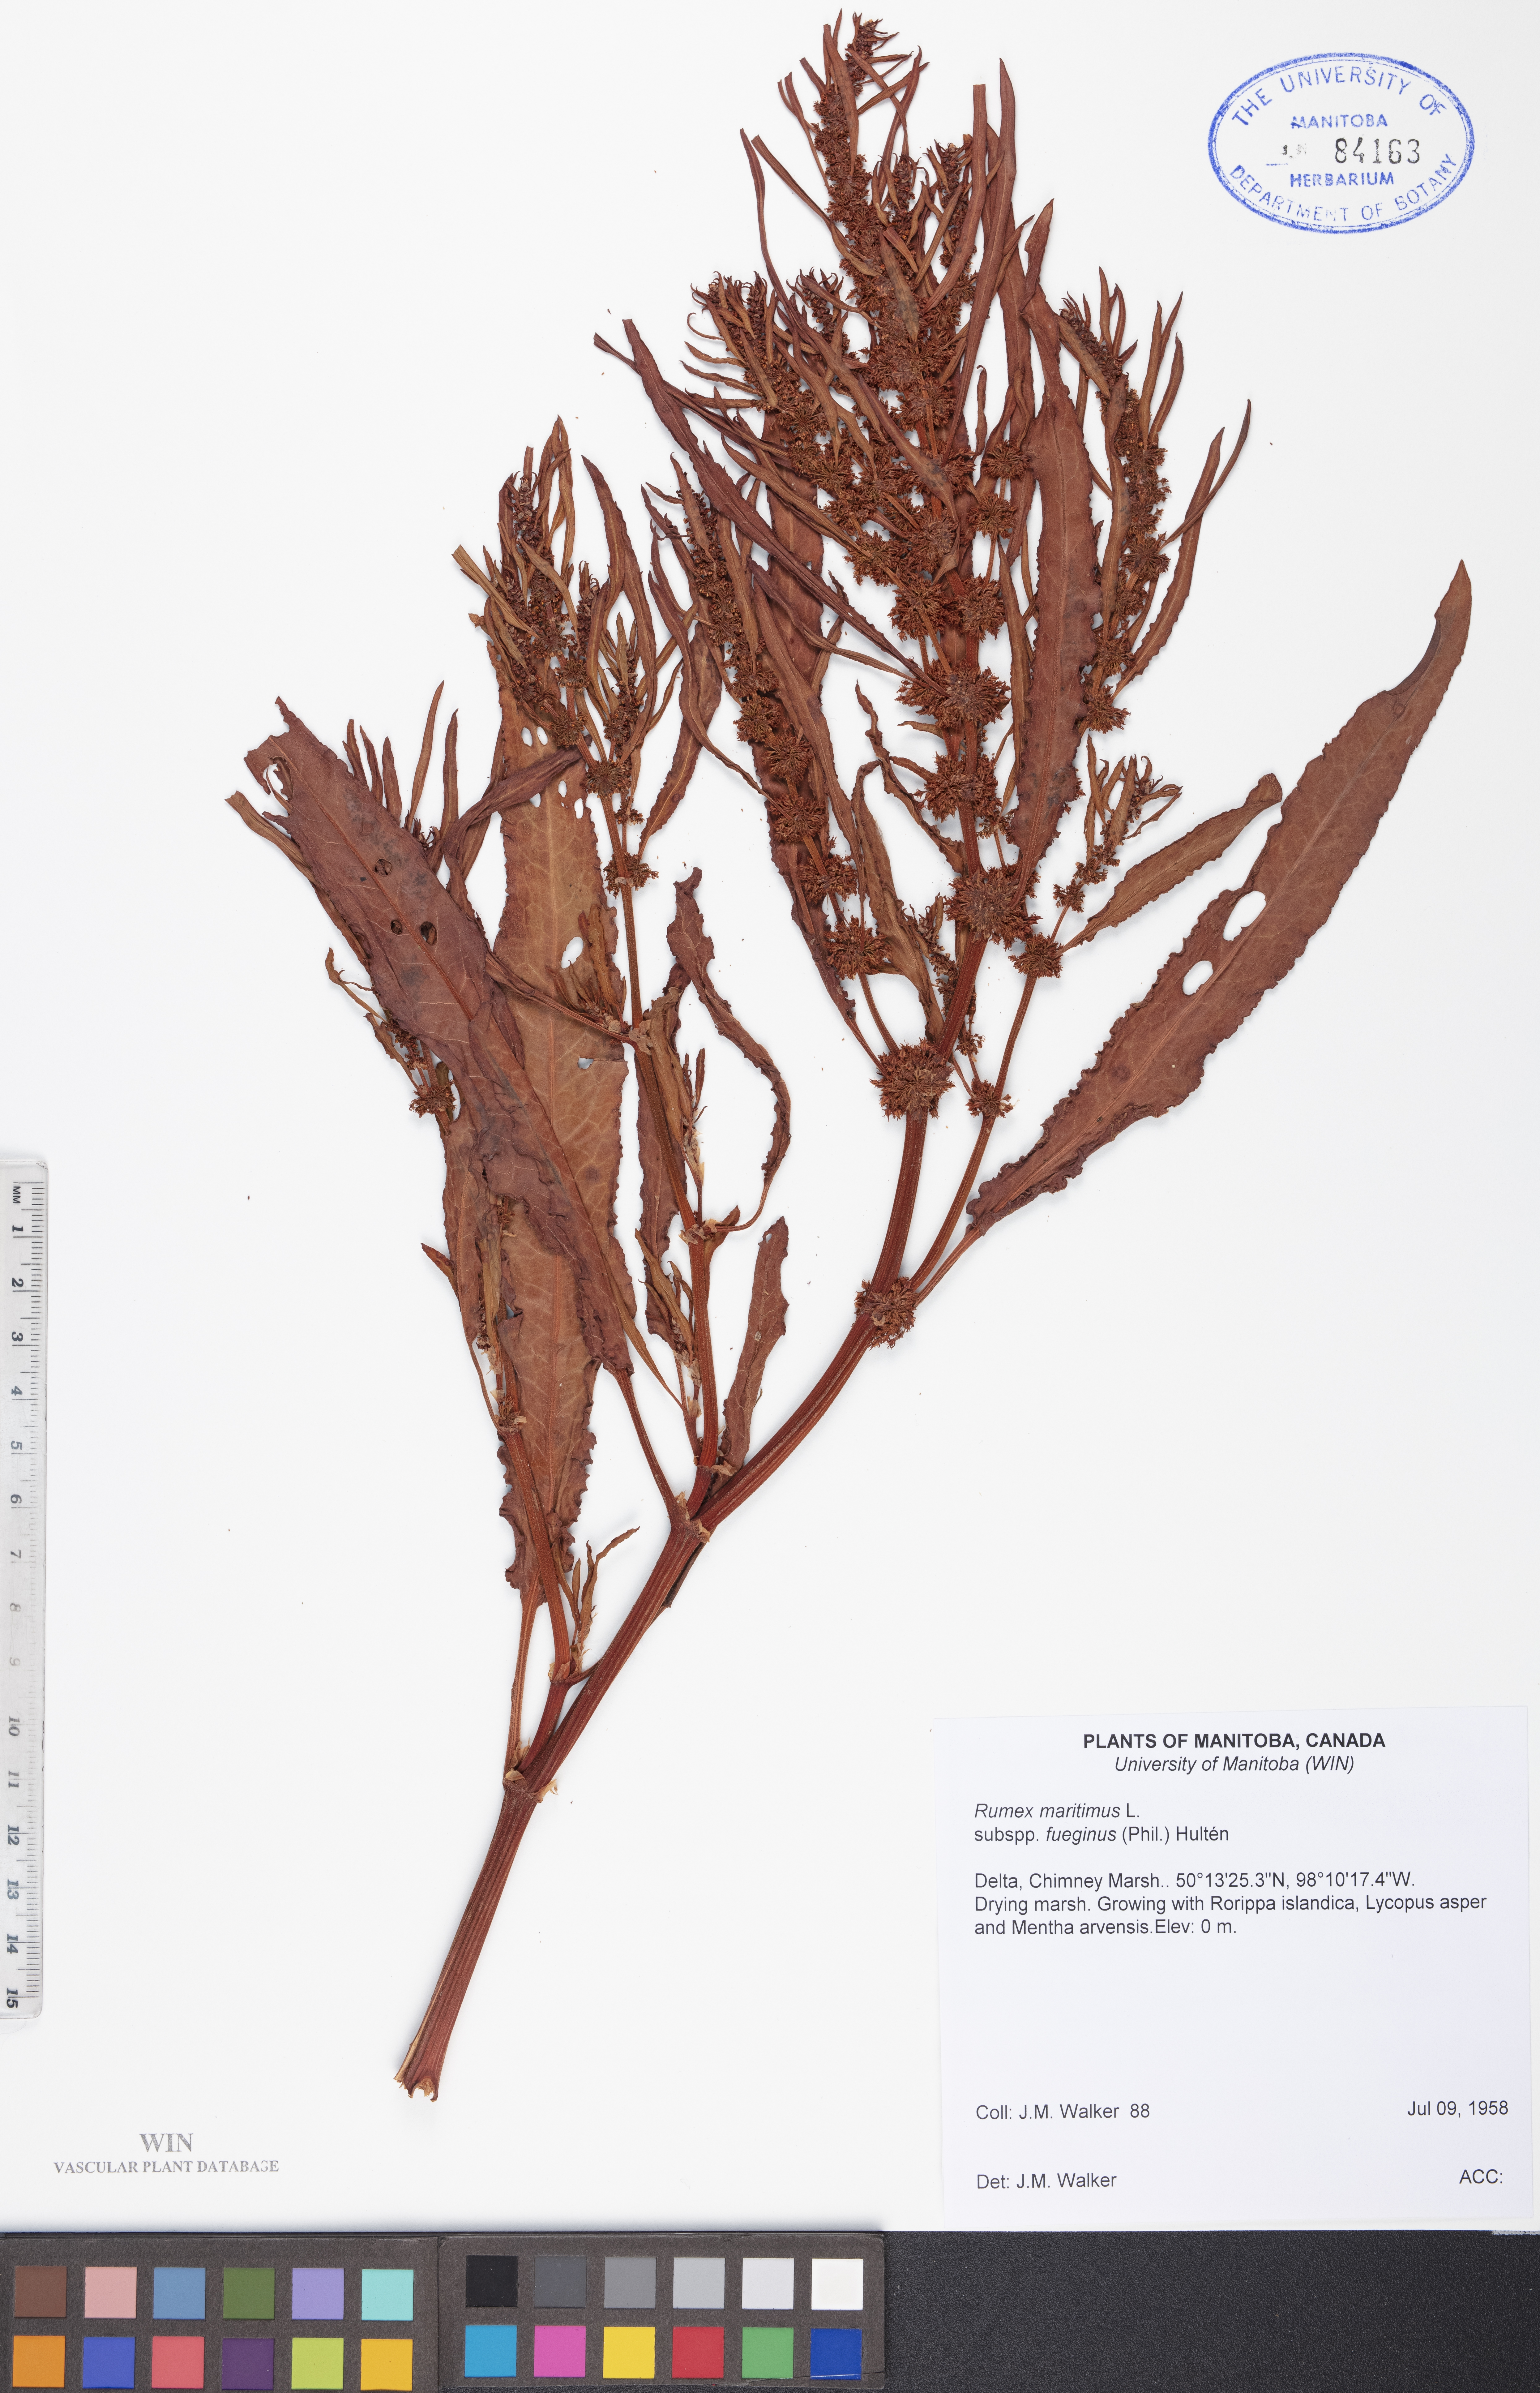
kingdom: Plantae
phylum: Tracheophyta
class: Magnoliopsida
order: Caryophyllales
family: Polygonaceae
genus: Rumex
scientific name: Rumex fueginus
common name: American golden dock
